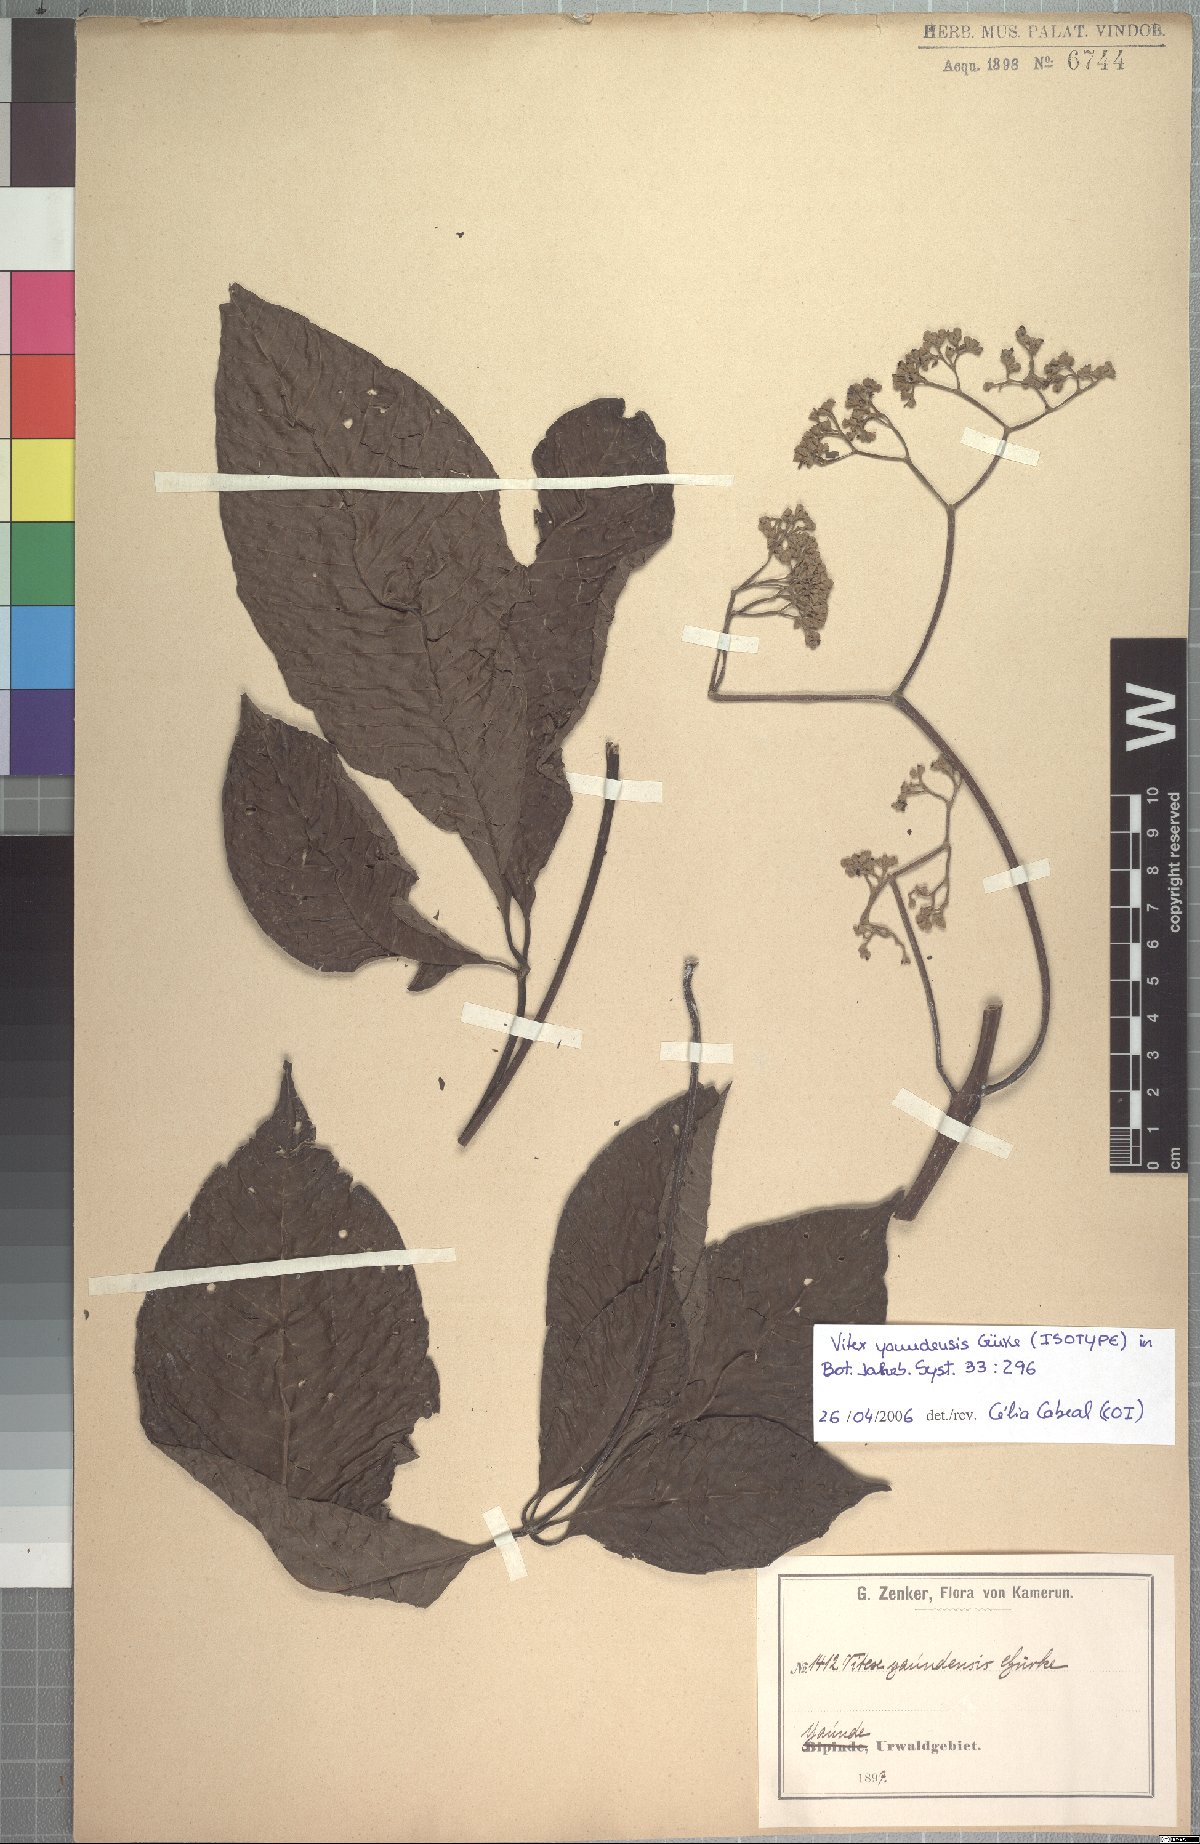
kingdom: Plantae
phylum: Tracheophyta
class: Magnoliopsida
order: Lamiales
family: Lamiaceae
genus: Vitex
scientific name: Vitex yaundensis
